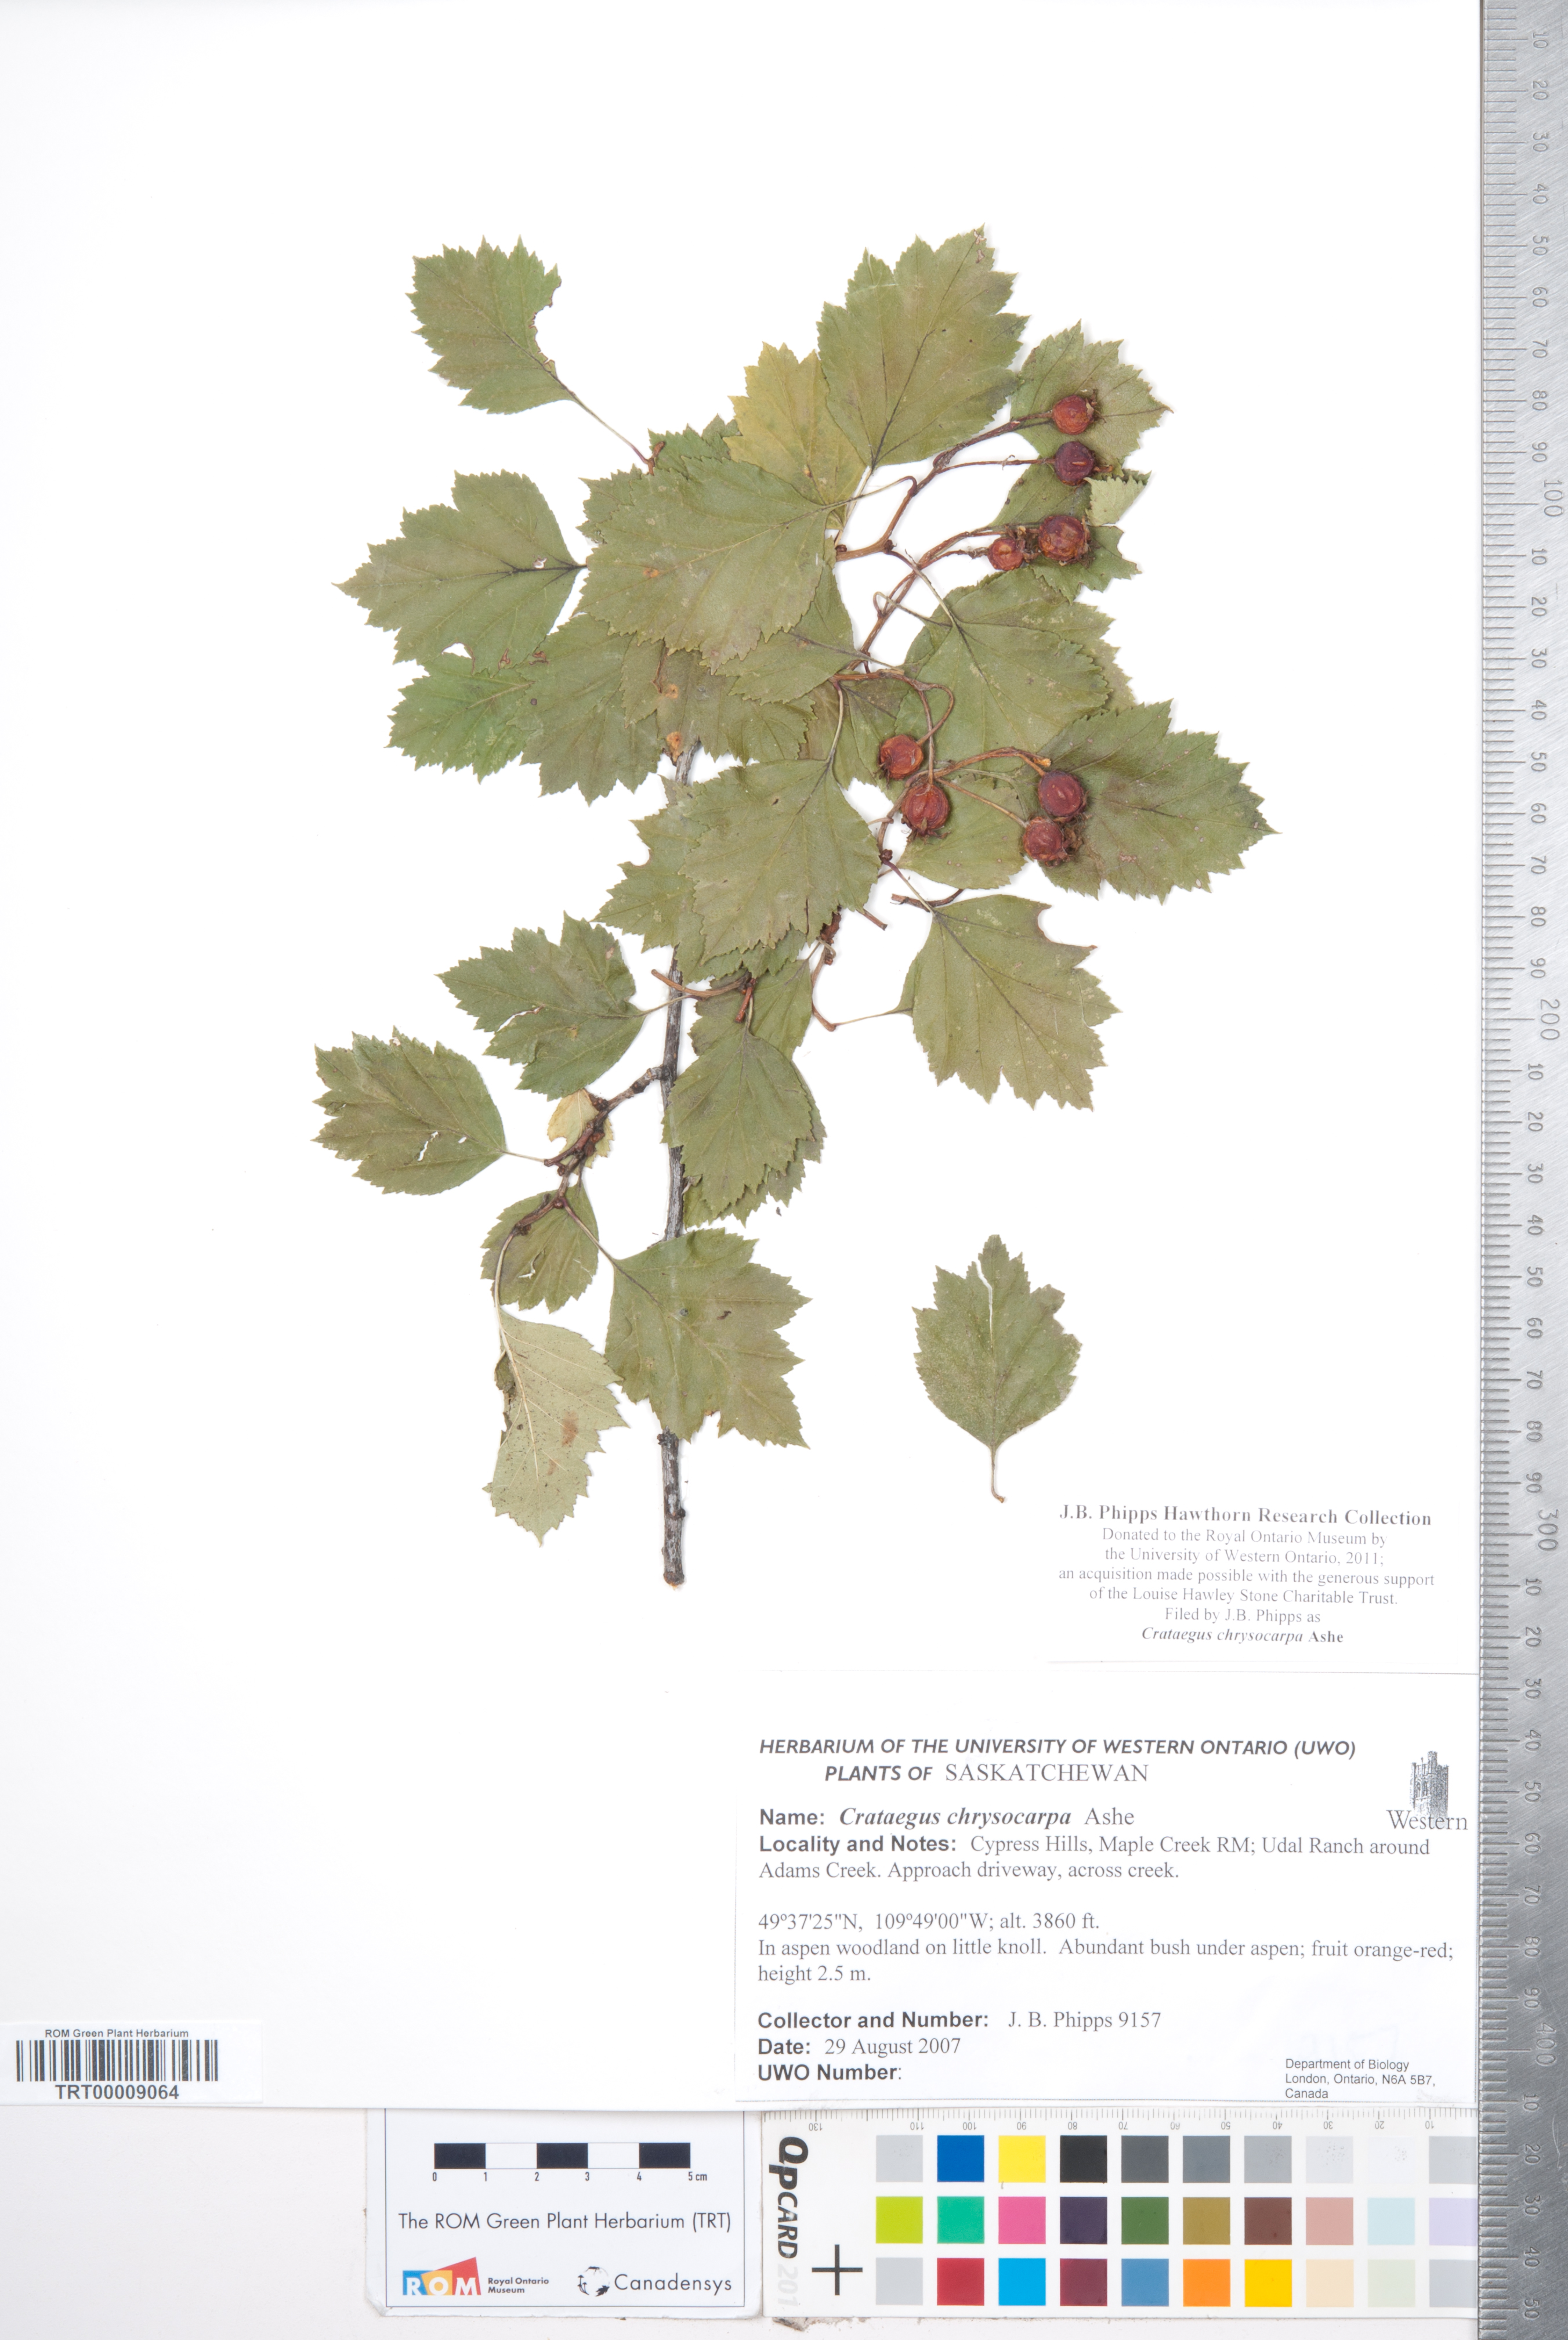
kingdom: Plantae
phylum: Tracheophyta
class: Magnoliopsida
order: Rosales
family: Rosaceae
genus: Crataegus
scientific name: Crataegus chrysocarpa
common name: Fire-berry hawthorn
